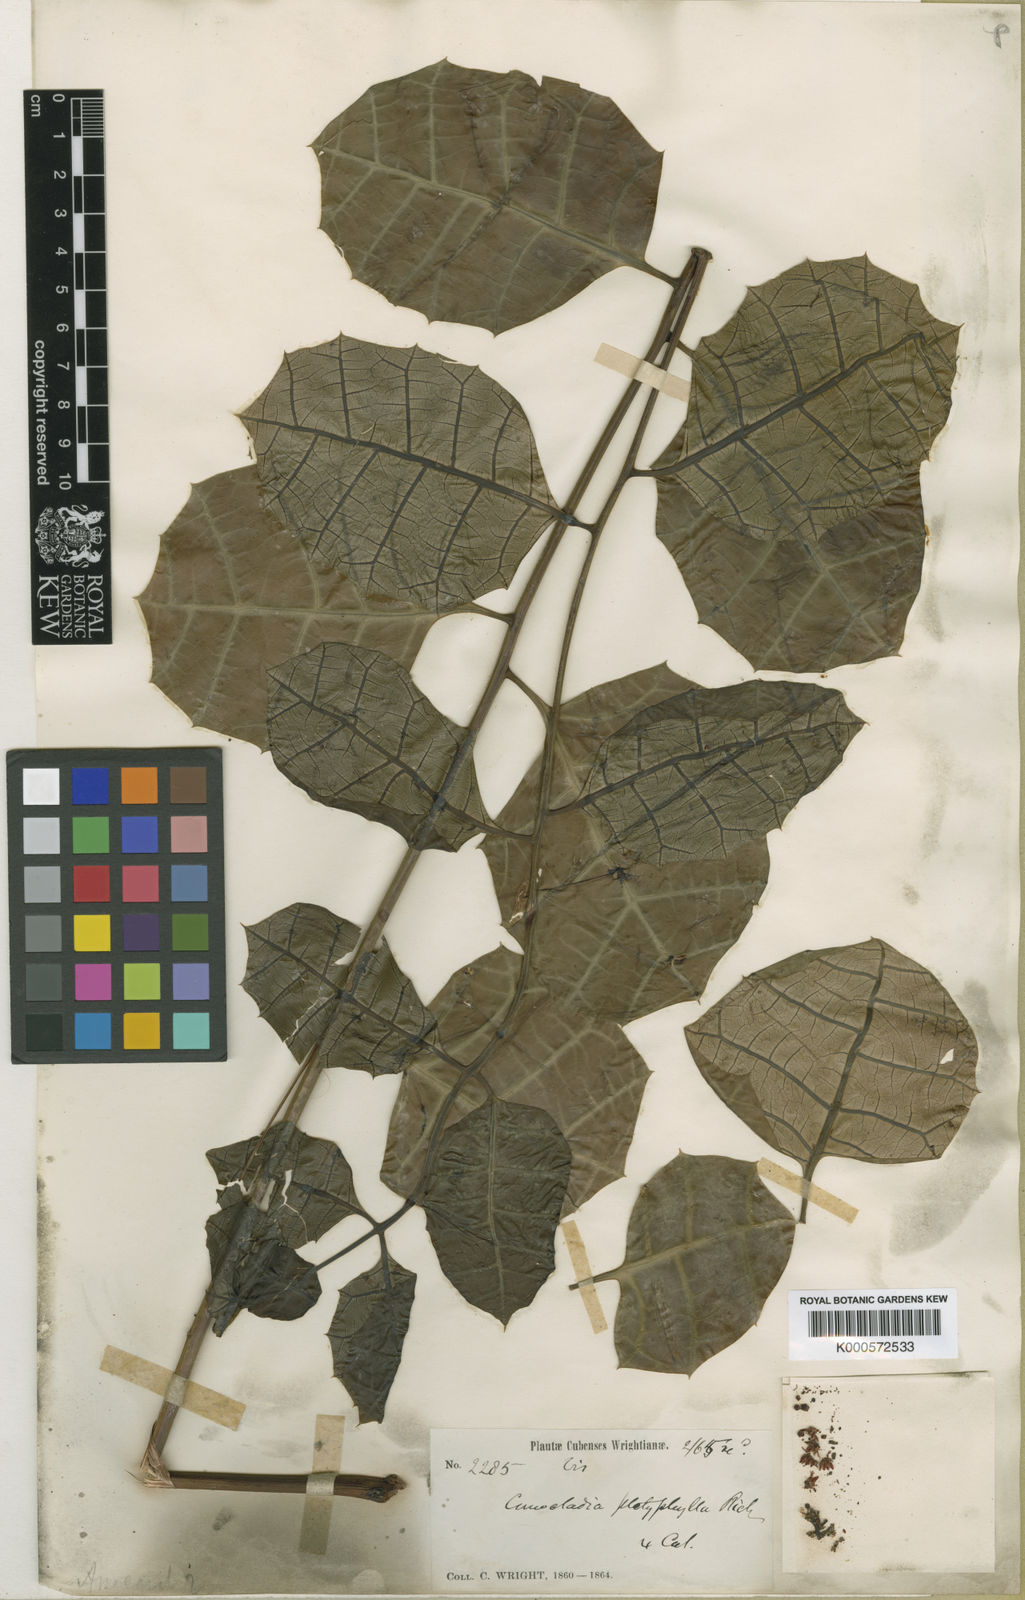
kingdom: Plantae
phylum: Tracheophyta
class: Magnoliopsida
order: Sapindales
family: Anacardiaceae
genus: Comocladia
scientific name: Comocladia platyphylla
